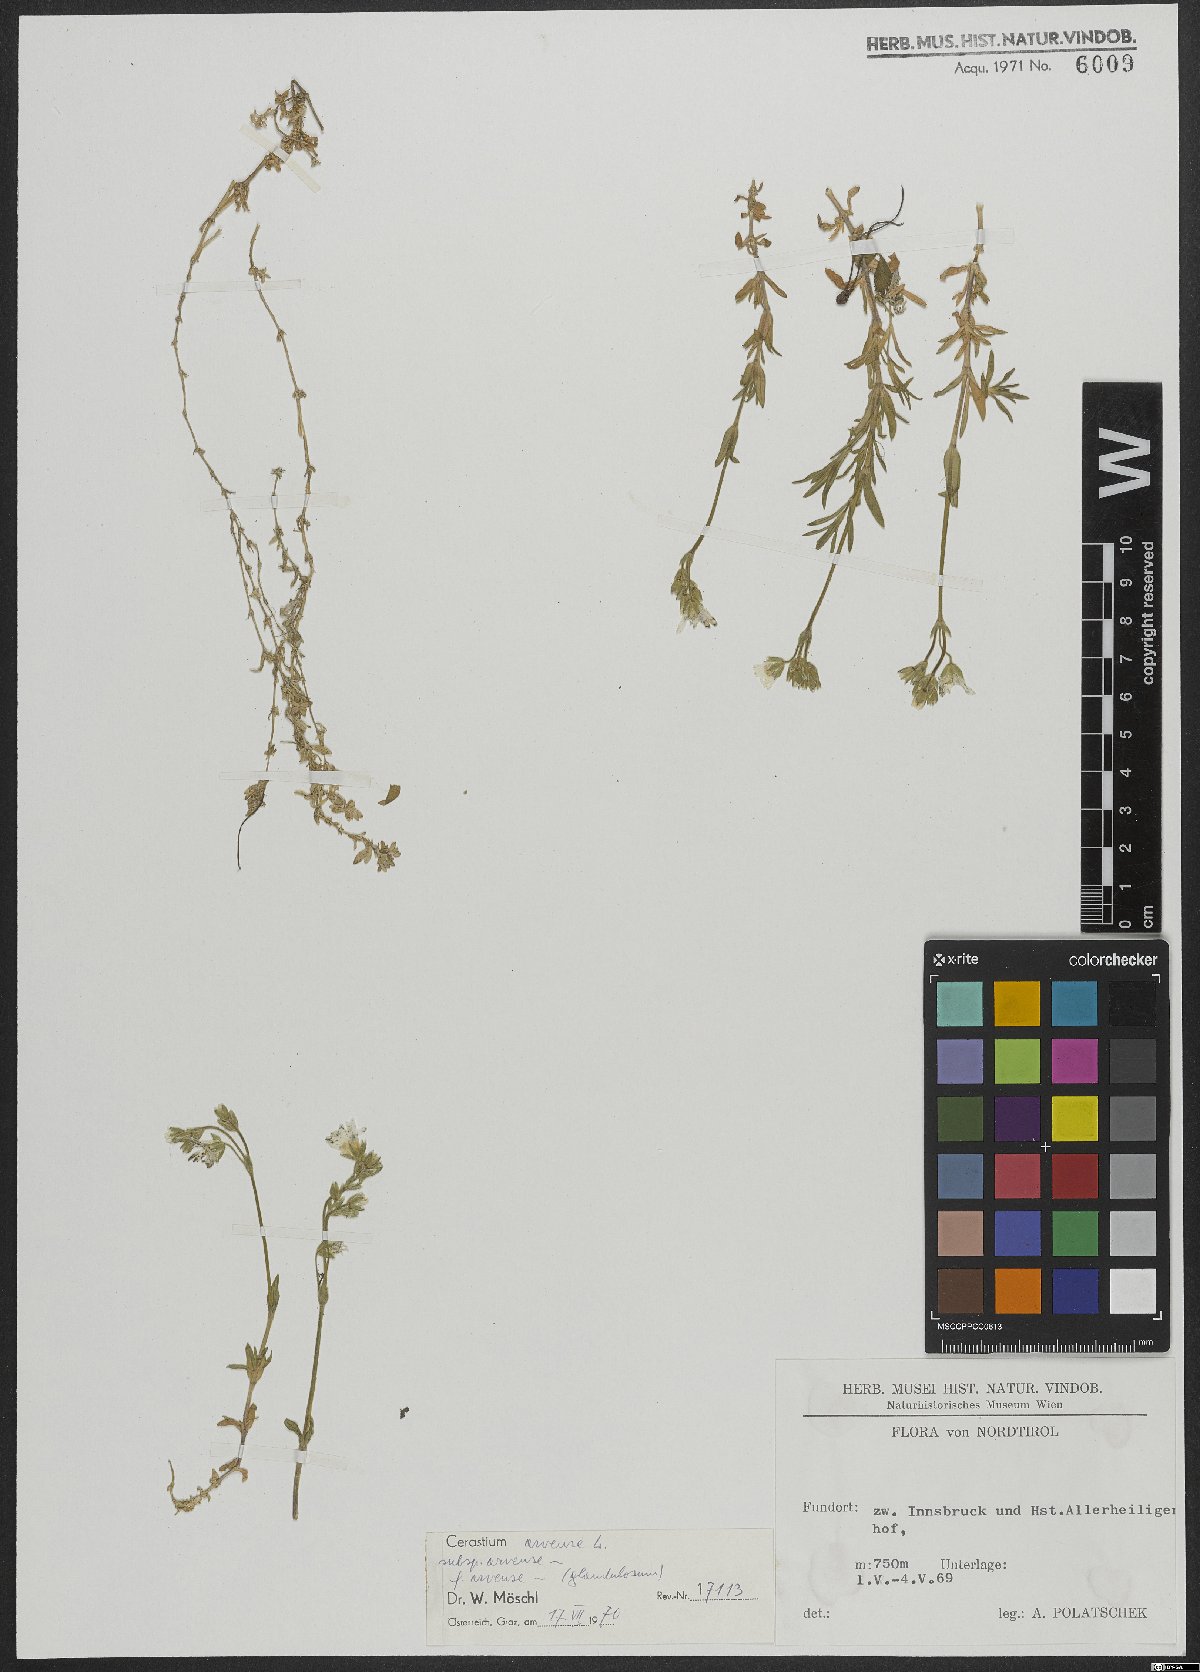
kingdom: Plantae
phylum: Tracheophyta
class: Magnoliopsida
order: Caryophyllales
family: Caryophyllaceae
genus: Cerastium
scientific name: Cerastium arvense
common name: Field mouse-ear
